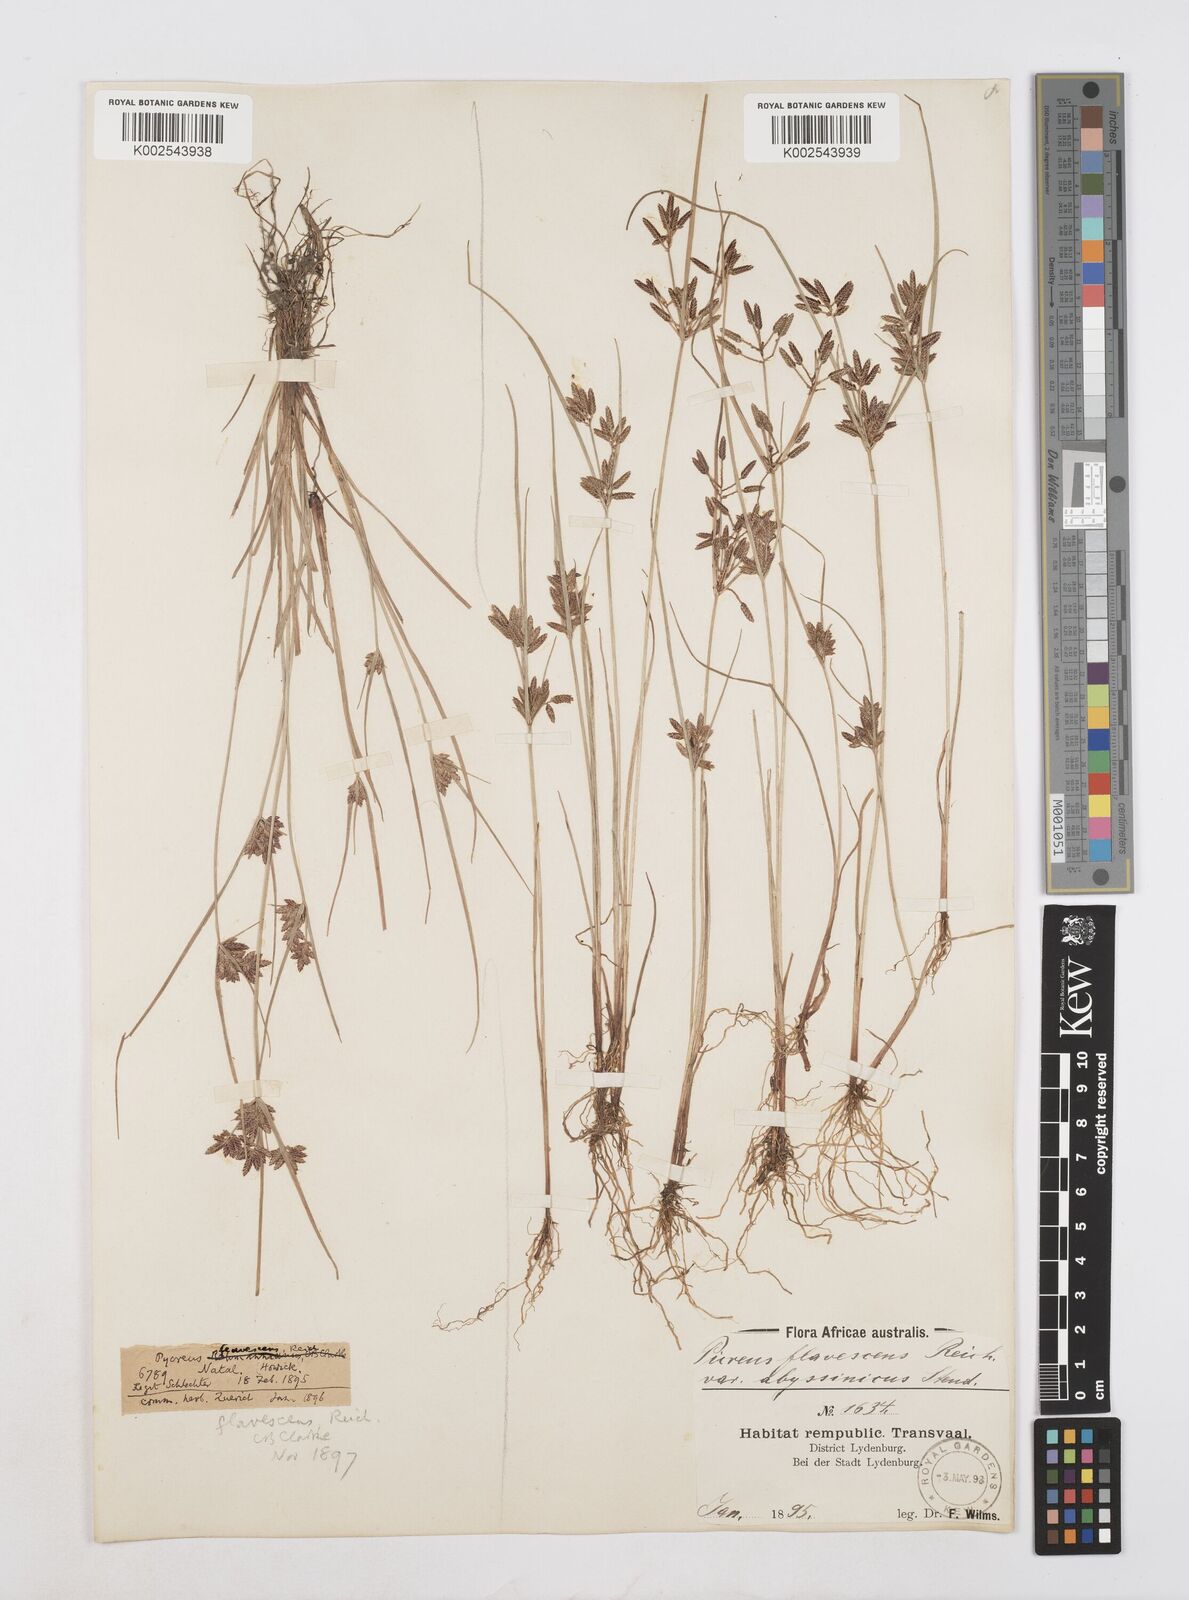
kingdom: Plantae
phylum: Tracheophyta
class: Liliopsida
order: Poales
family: Cyperaceae
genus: Cyperus
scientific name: Cyperus flavescens
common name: Yellow galingale
